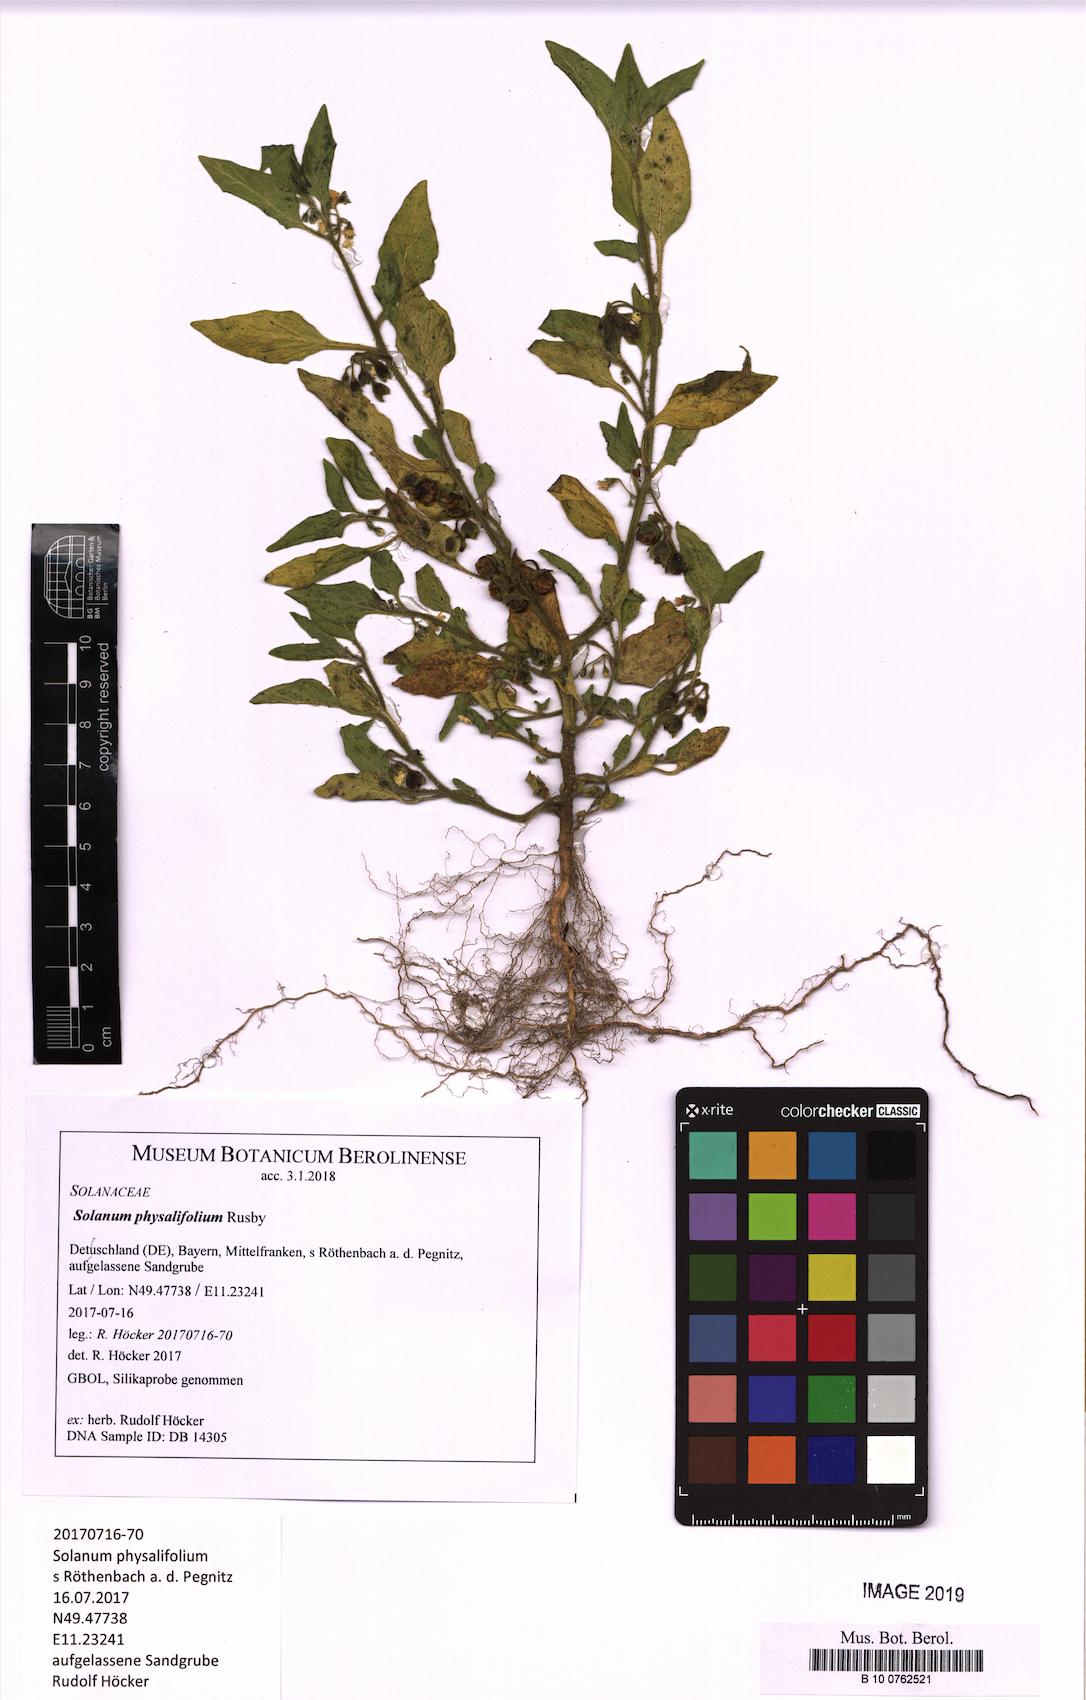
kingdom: Plantae
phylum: Tracheophyta
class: Magnoliopsida
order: Solanales
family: Solanaceae
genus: Solanum
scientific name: Solanum physalifolium
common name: Green nightshade
